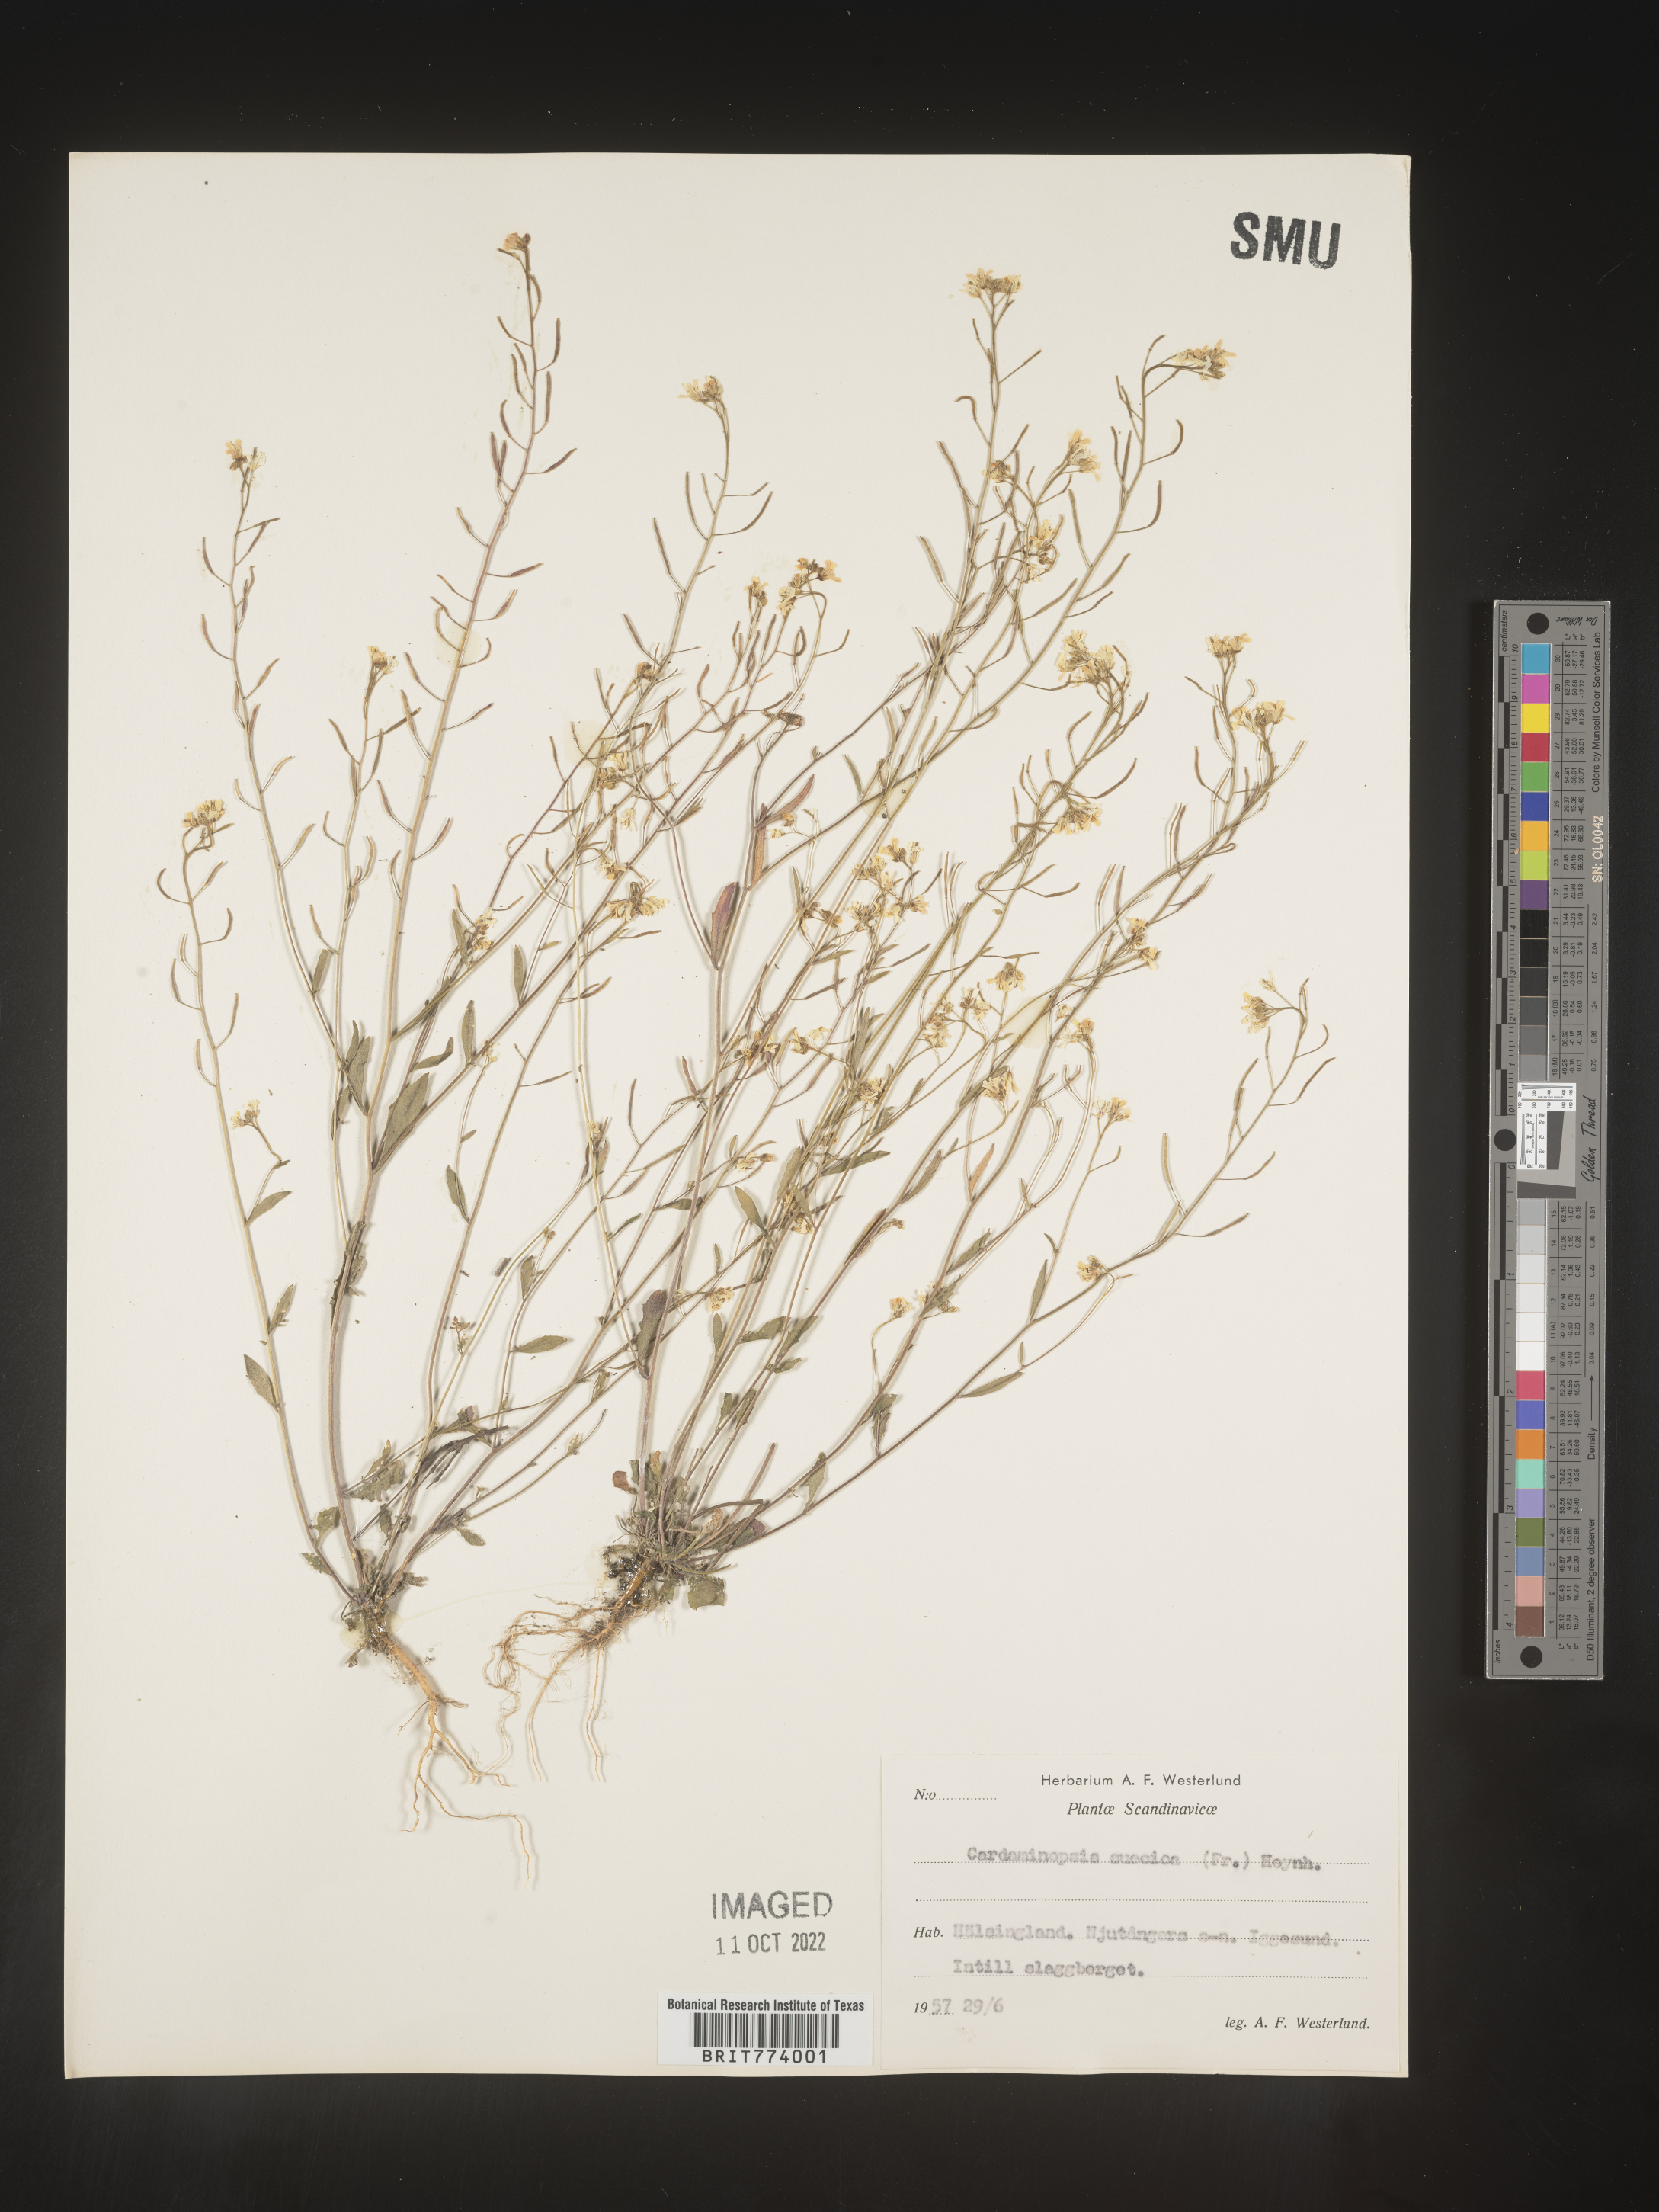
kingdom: Plantae
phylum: Tracheophyta
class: Magnoliopsida
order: Brassicales
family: Brassicaceae
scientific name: Brassicaceae
